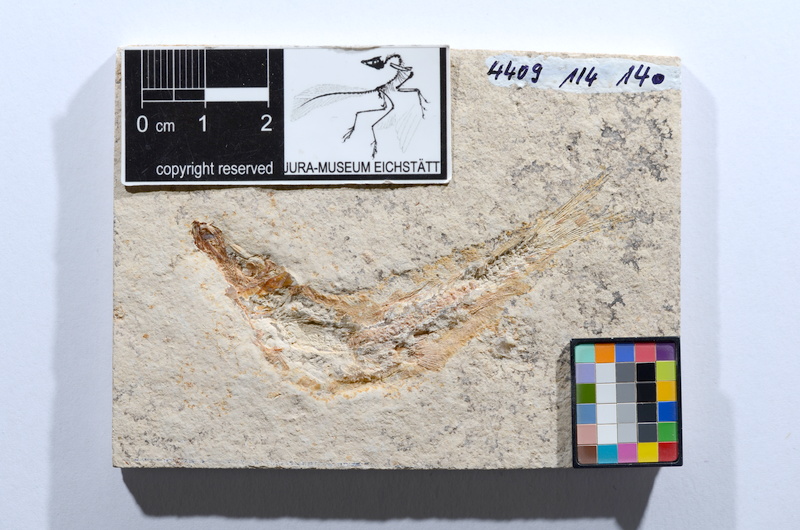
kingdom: Animalia
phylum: Chordata
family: Ascalaboidae
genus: Tharsis
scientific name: Tharsis dubius
